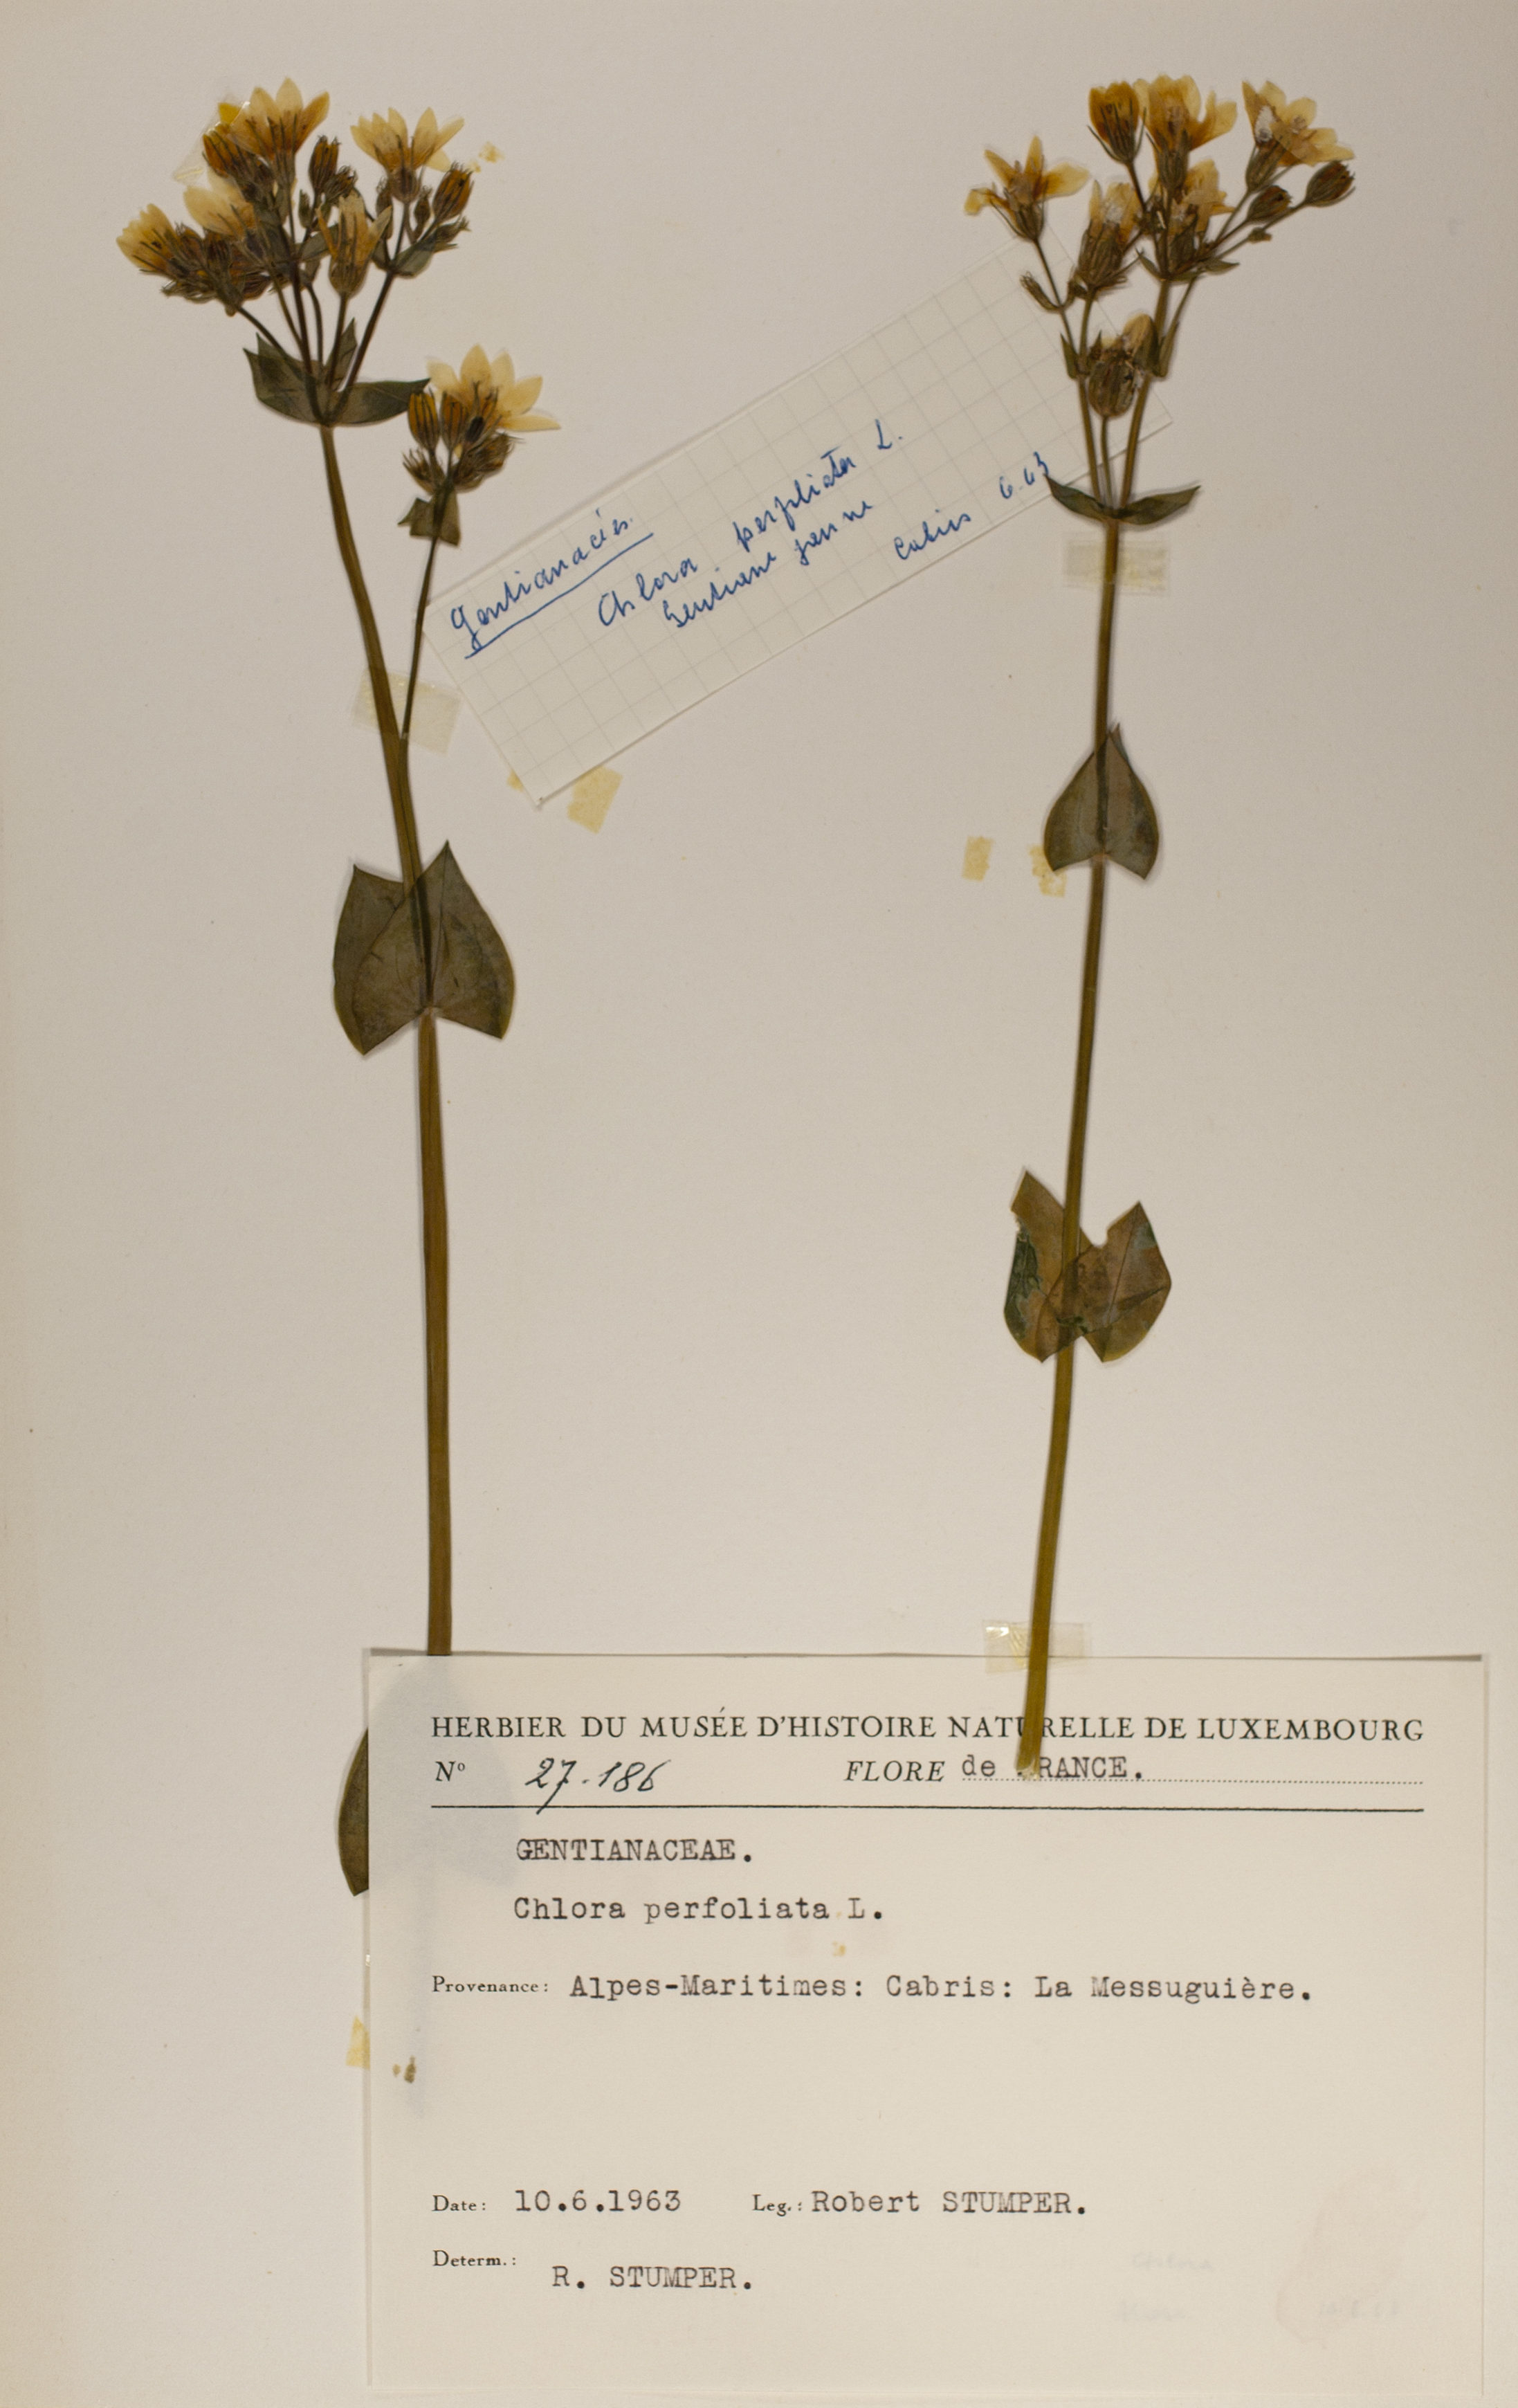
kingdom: Plantae
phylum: Tracheophyta
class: Magnoliopsida
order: Gentianales
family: Gentianaceae
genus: Blackstonia
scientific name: Blackstonia perfoliata
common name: Yellow-wort
